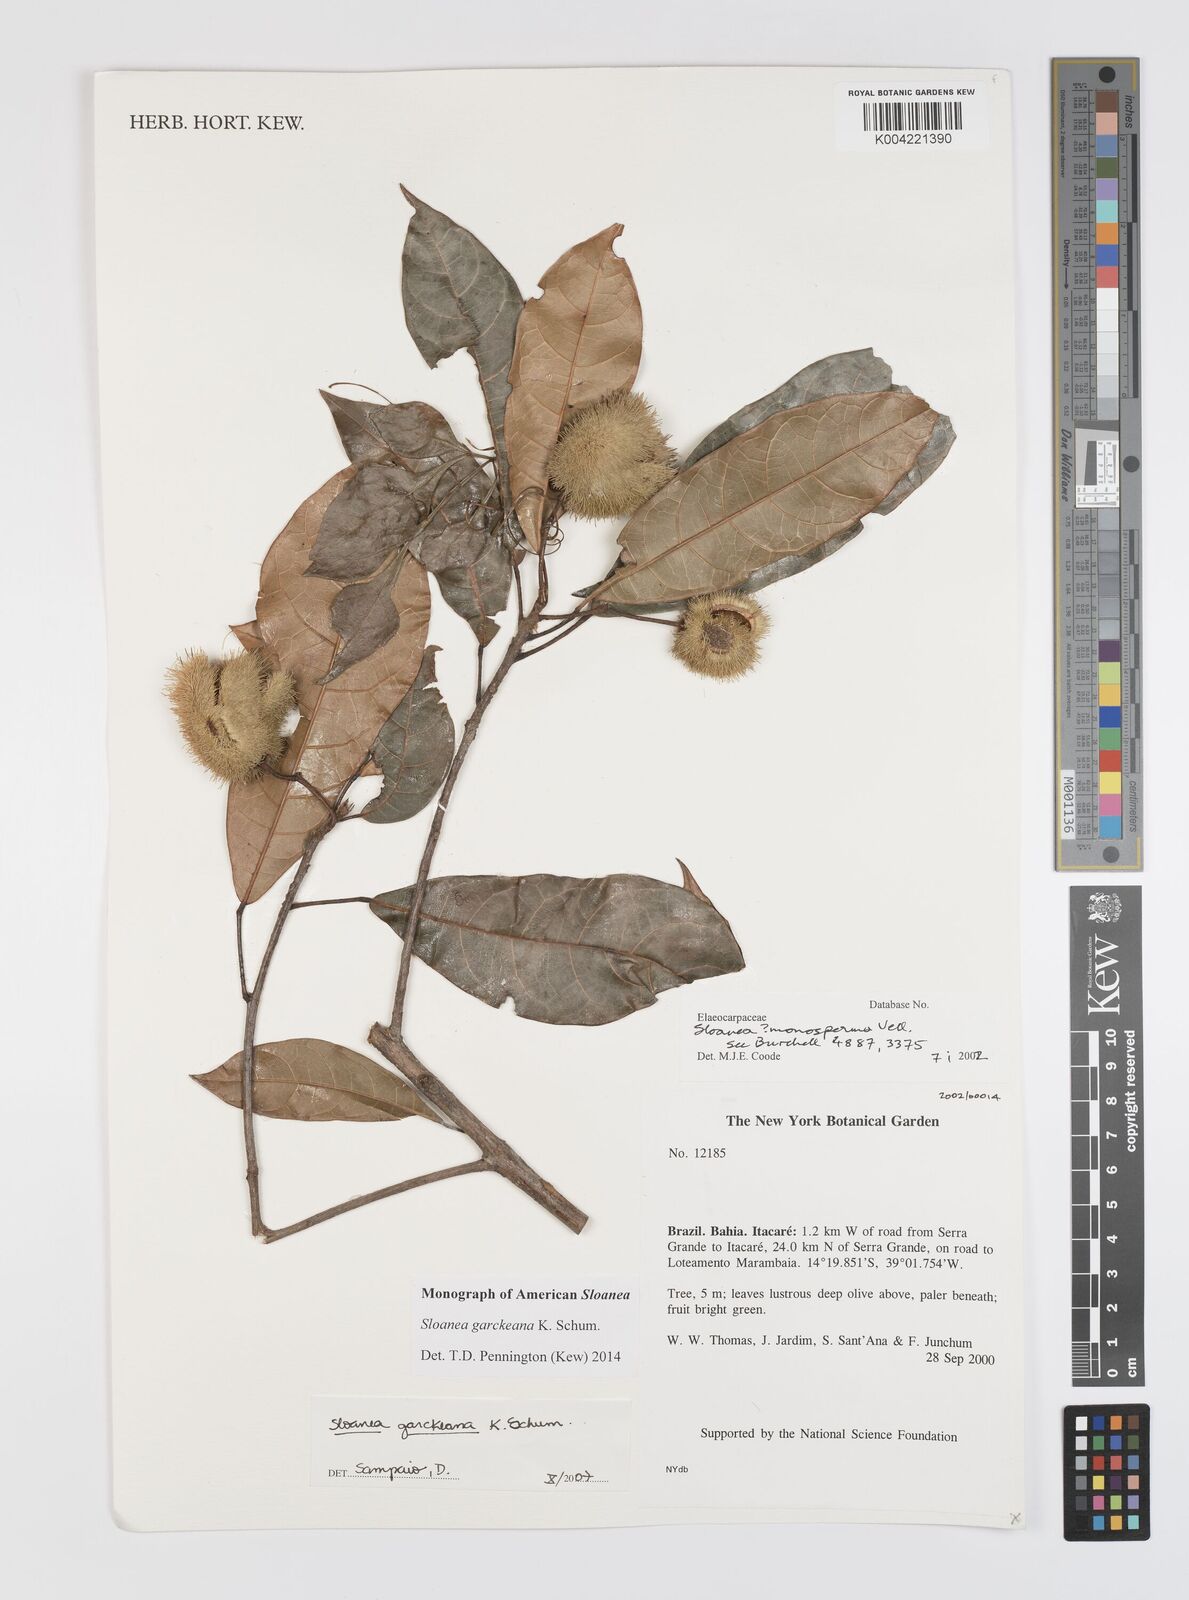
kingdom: Plantae
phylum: Tracheophyta
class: Magnoliopsida
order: Oxalidales
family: Elaeocarpaceae
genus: Sloanea
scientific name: Sloanea garckeana
